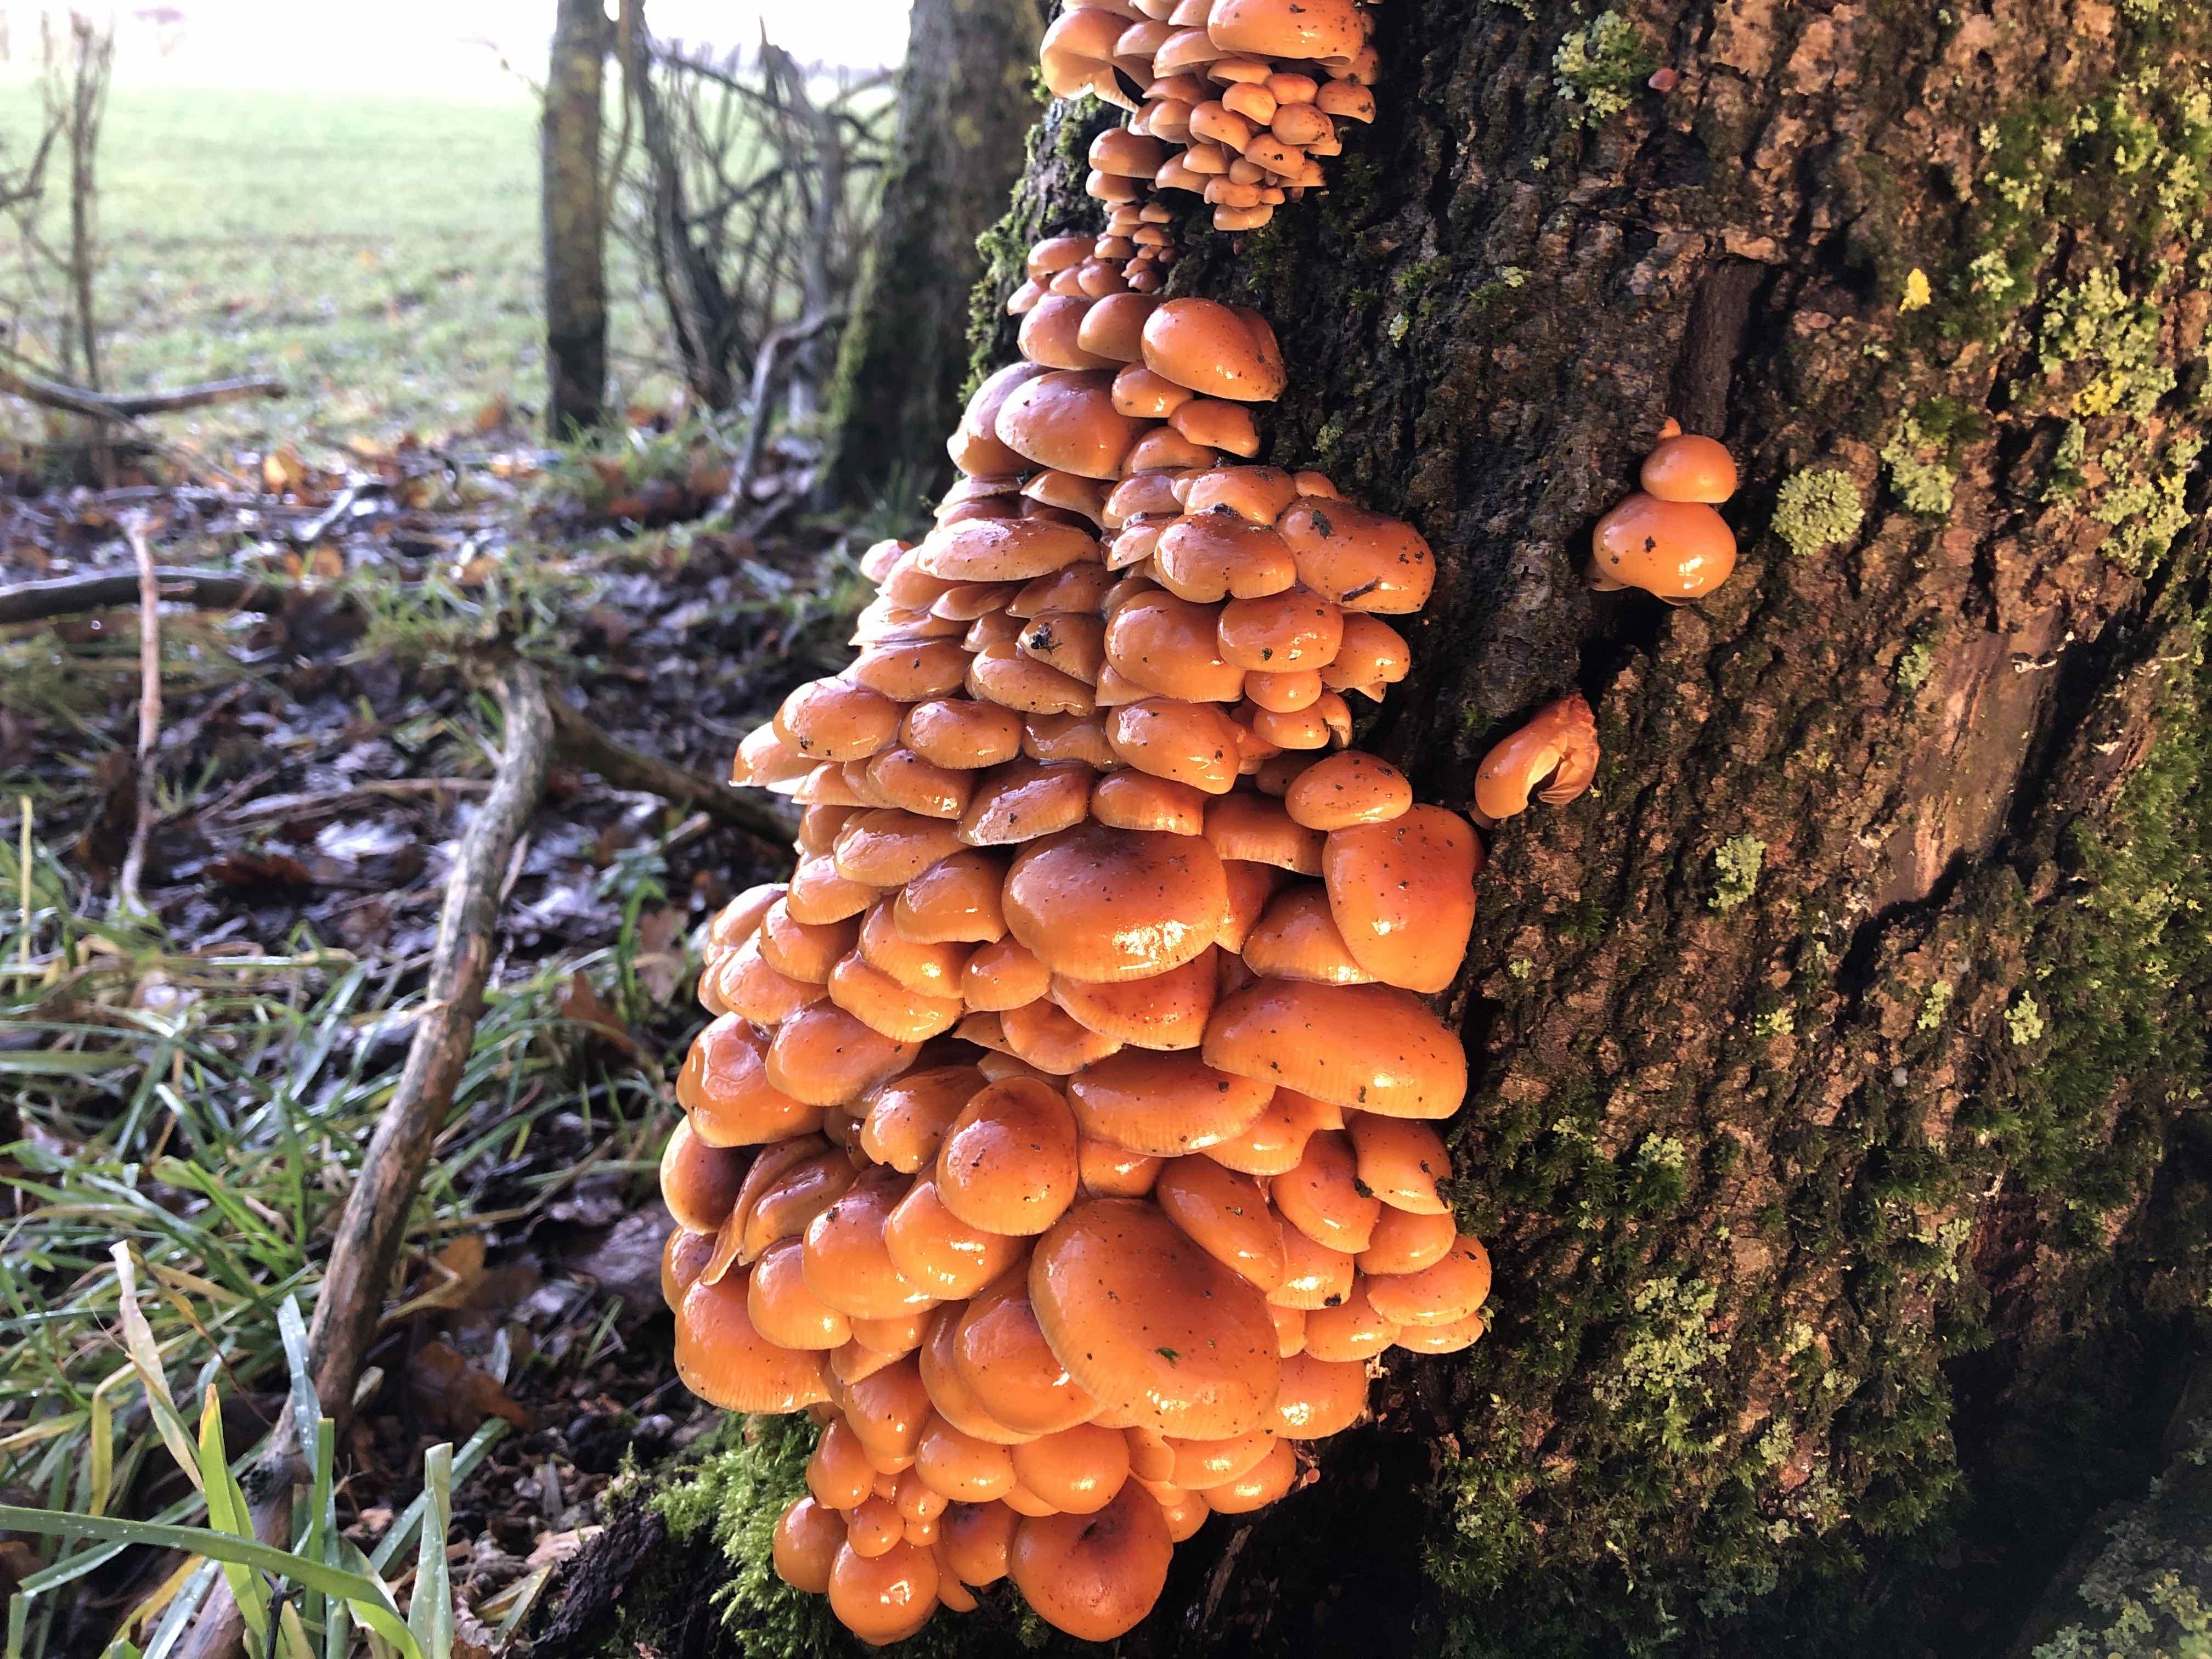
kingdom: Fungi
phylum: Basidiomycota
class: Agaricomycetes
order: Agaricales
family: Physalacriaceae
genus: Flammulina
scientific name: Flammulina velutipes
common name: gul fløjlsfod
